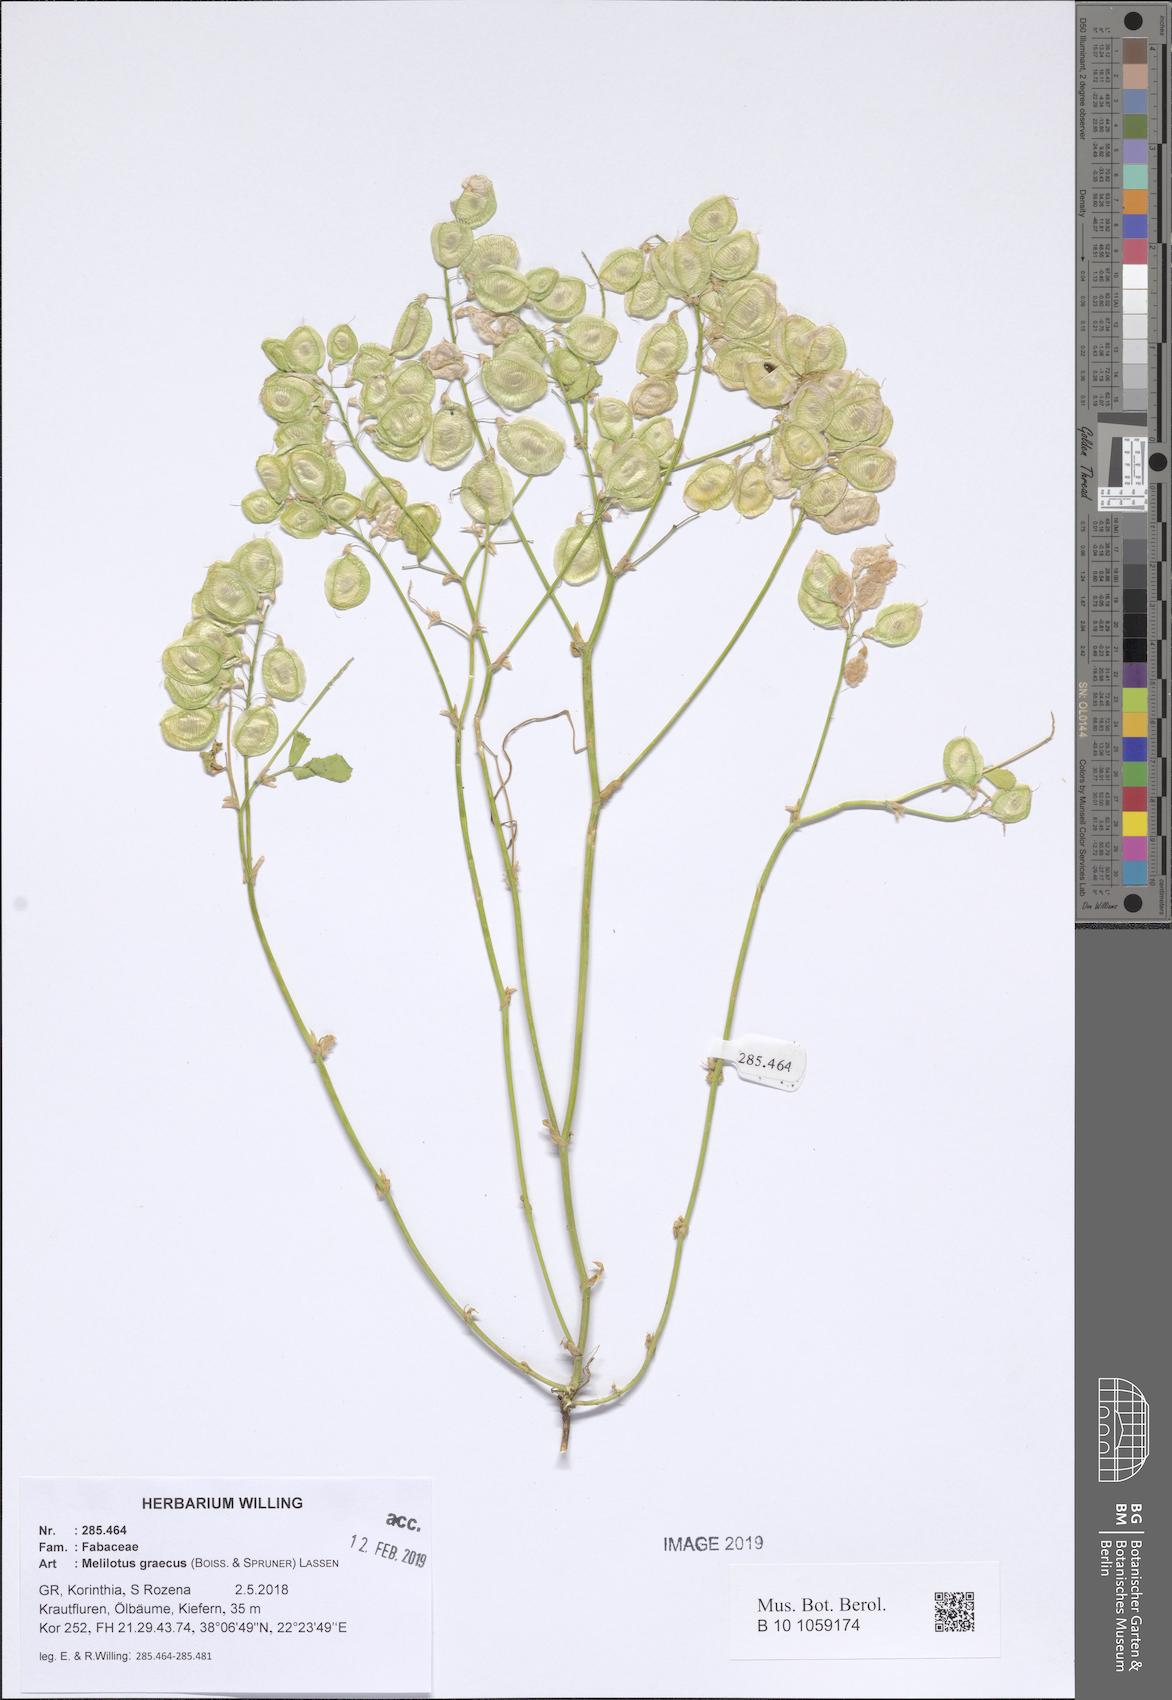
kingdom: Plantae
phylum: Tracheophyta
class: Magnoliopsida
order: Fabales
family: Fabaceae
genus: Trigonella
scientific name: Trigonella graeca
